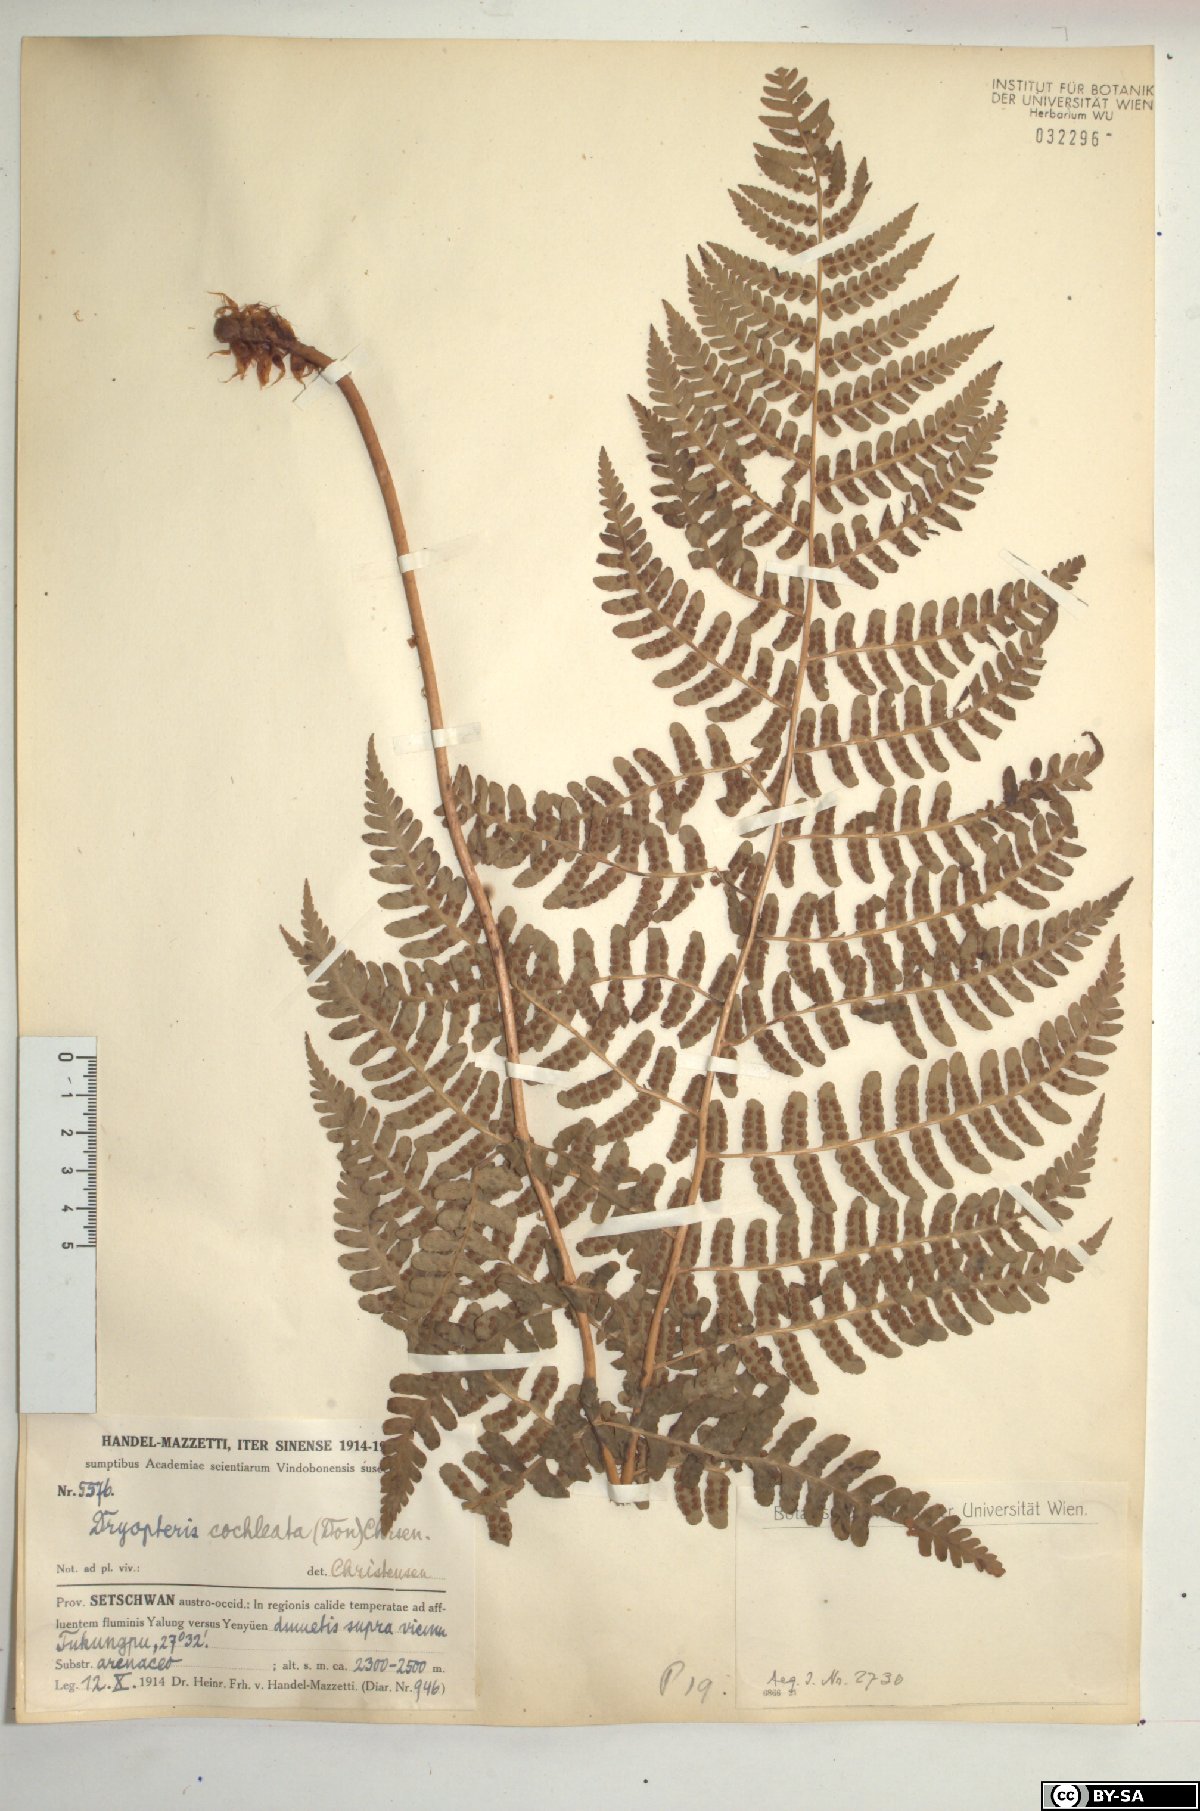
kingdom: Plantae
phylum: Tracheophyta
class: Polypodiopsida
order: Polypodiales
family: Dryopteridaceae
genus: Dryopteris
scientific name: Dryopteris cochleata
